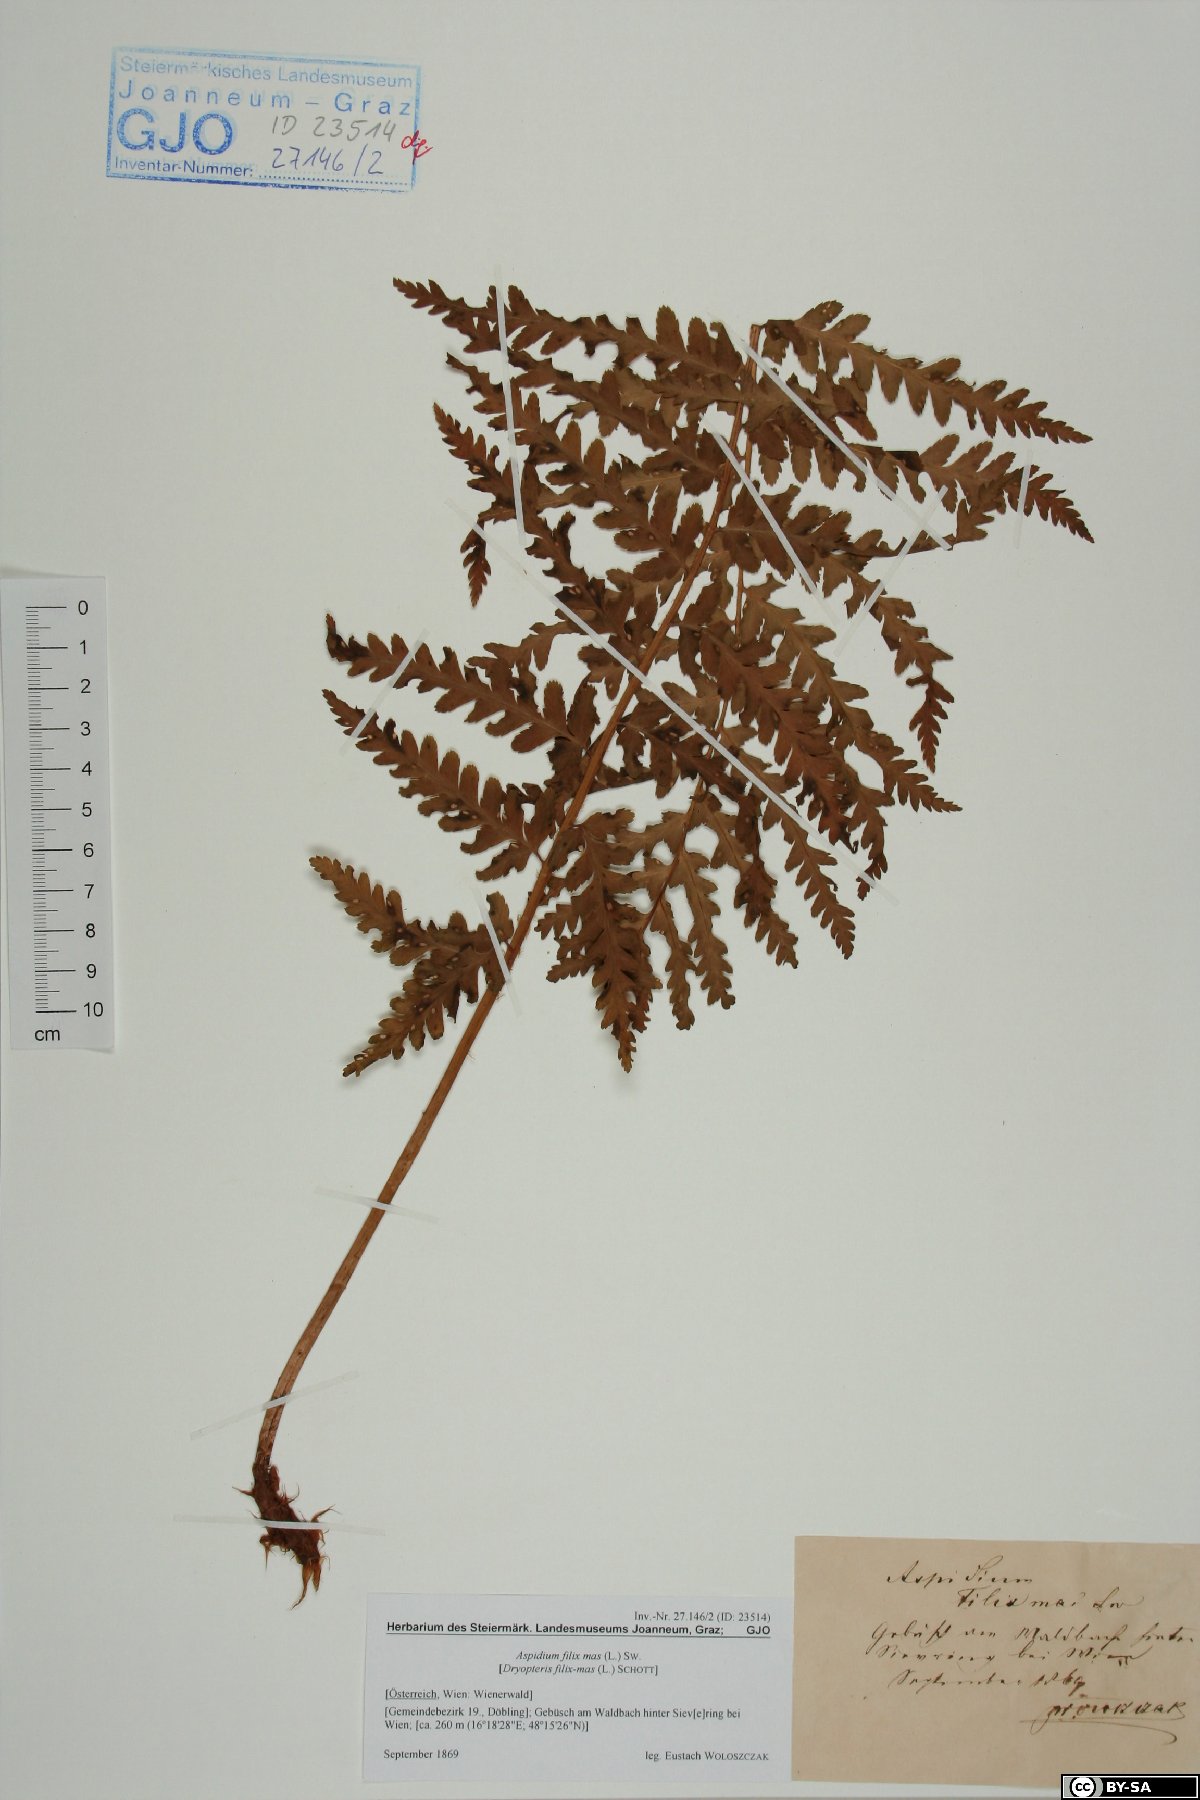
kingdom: Plantae
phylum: Tracheophyta
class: Polypodiopsida
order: Polypodiales
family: Dryopteridaceae
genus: Dryopteris
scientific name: Dryopteris filix-mas
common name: Male fern
